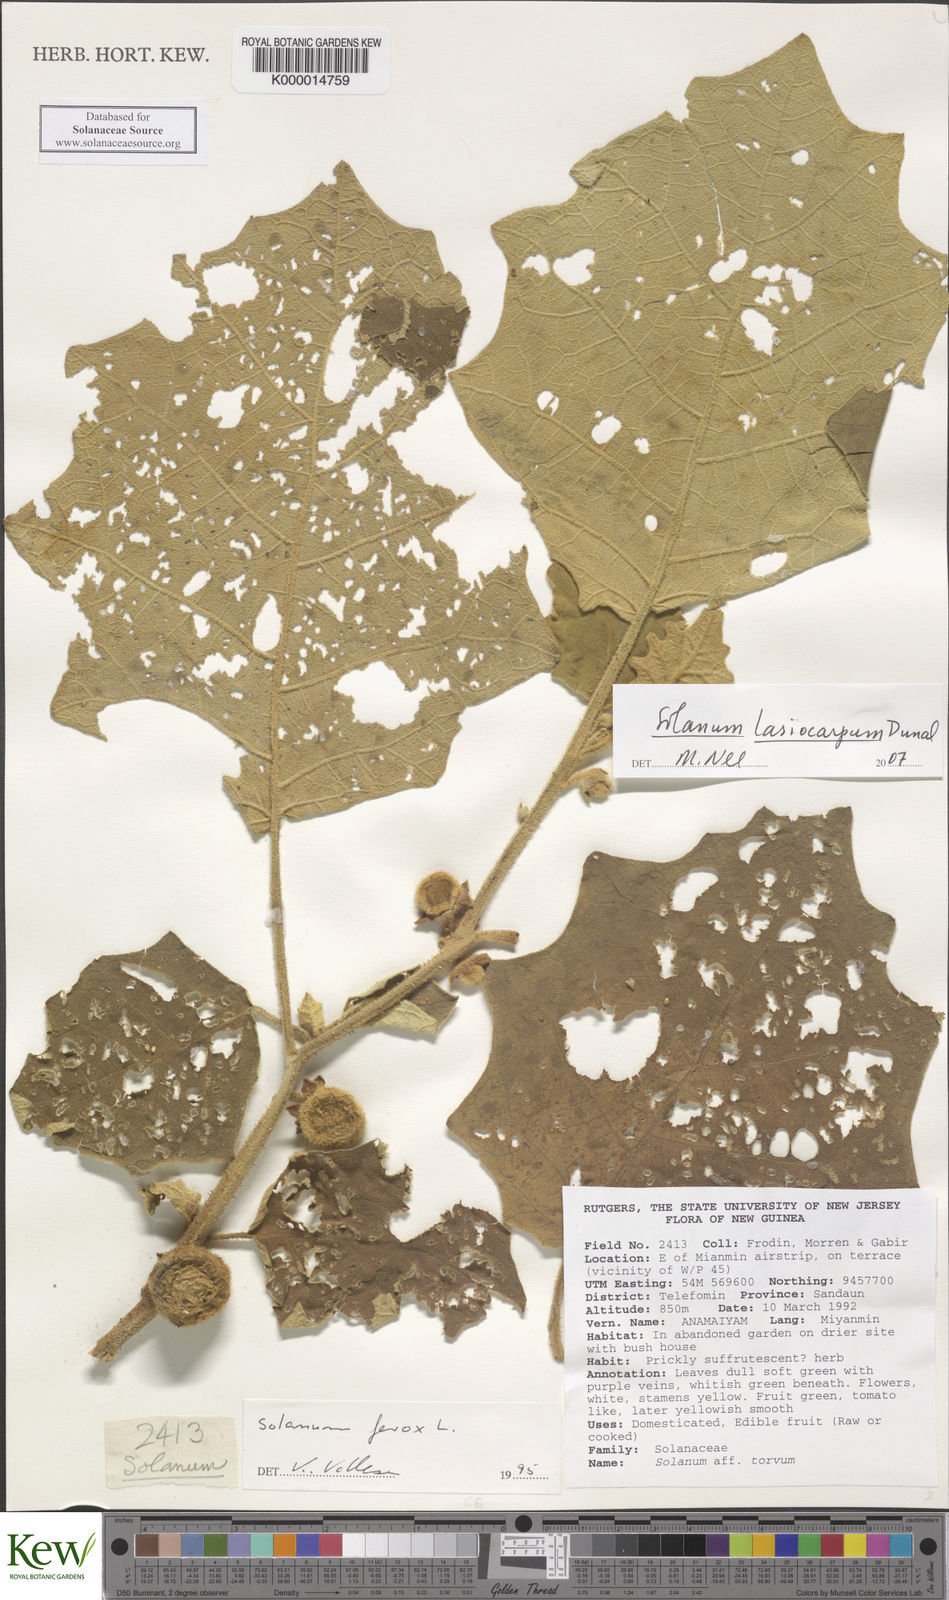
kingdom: Plantae
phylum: Tracheophyta
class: Magnoliopsida
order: Solanales
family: Solanaceae
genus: Solanum
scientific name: Solanum lasiocarpum
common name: Indian nightshade
